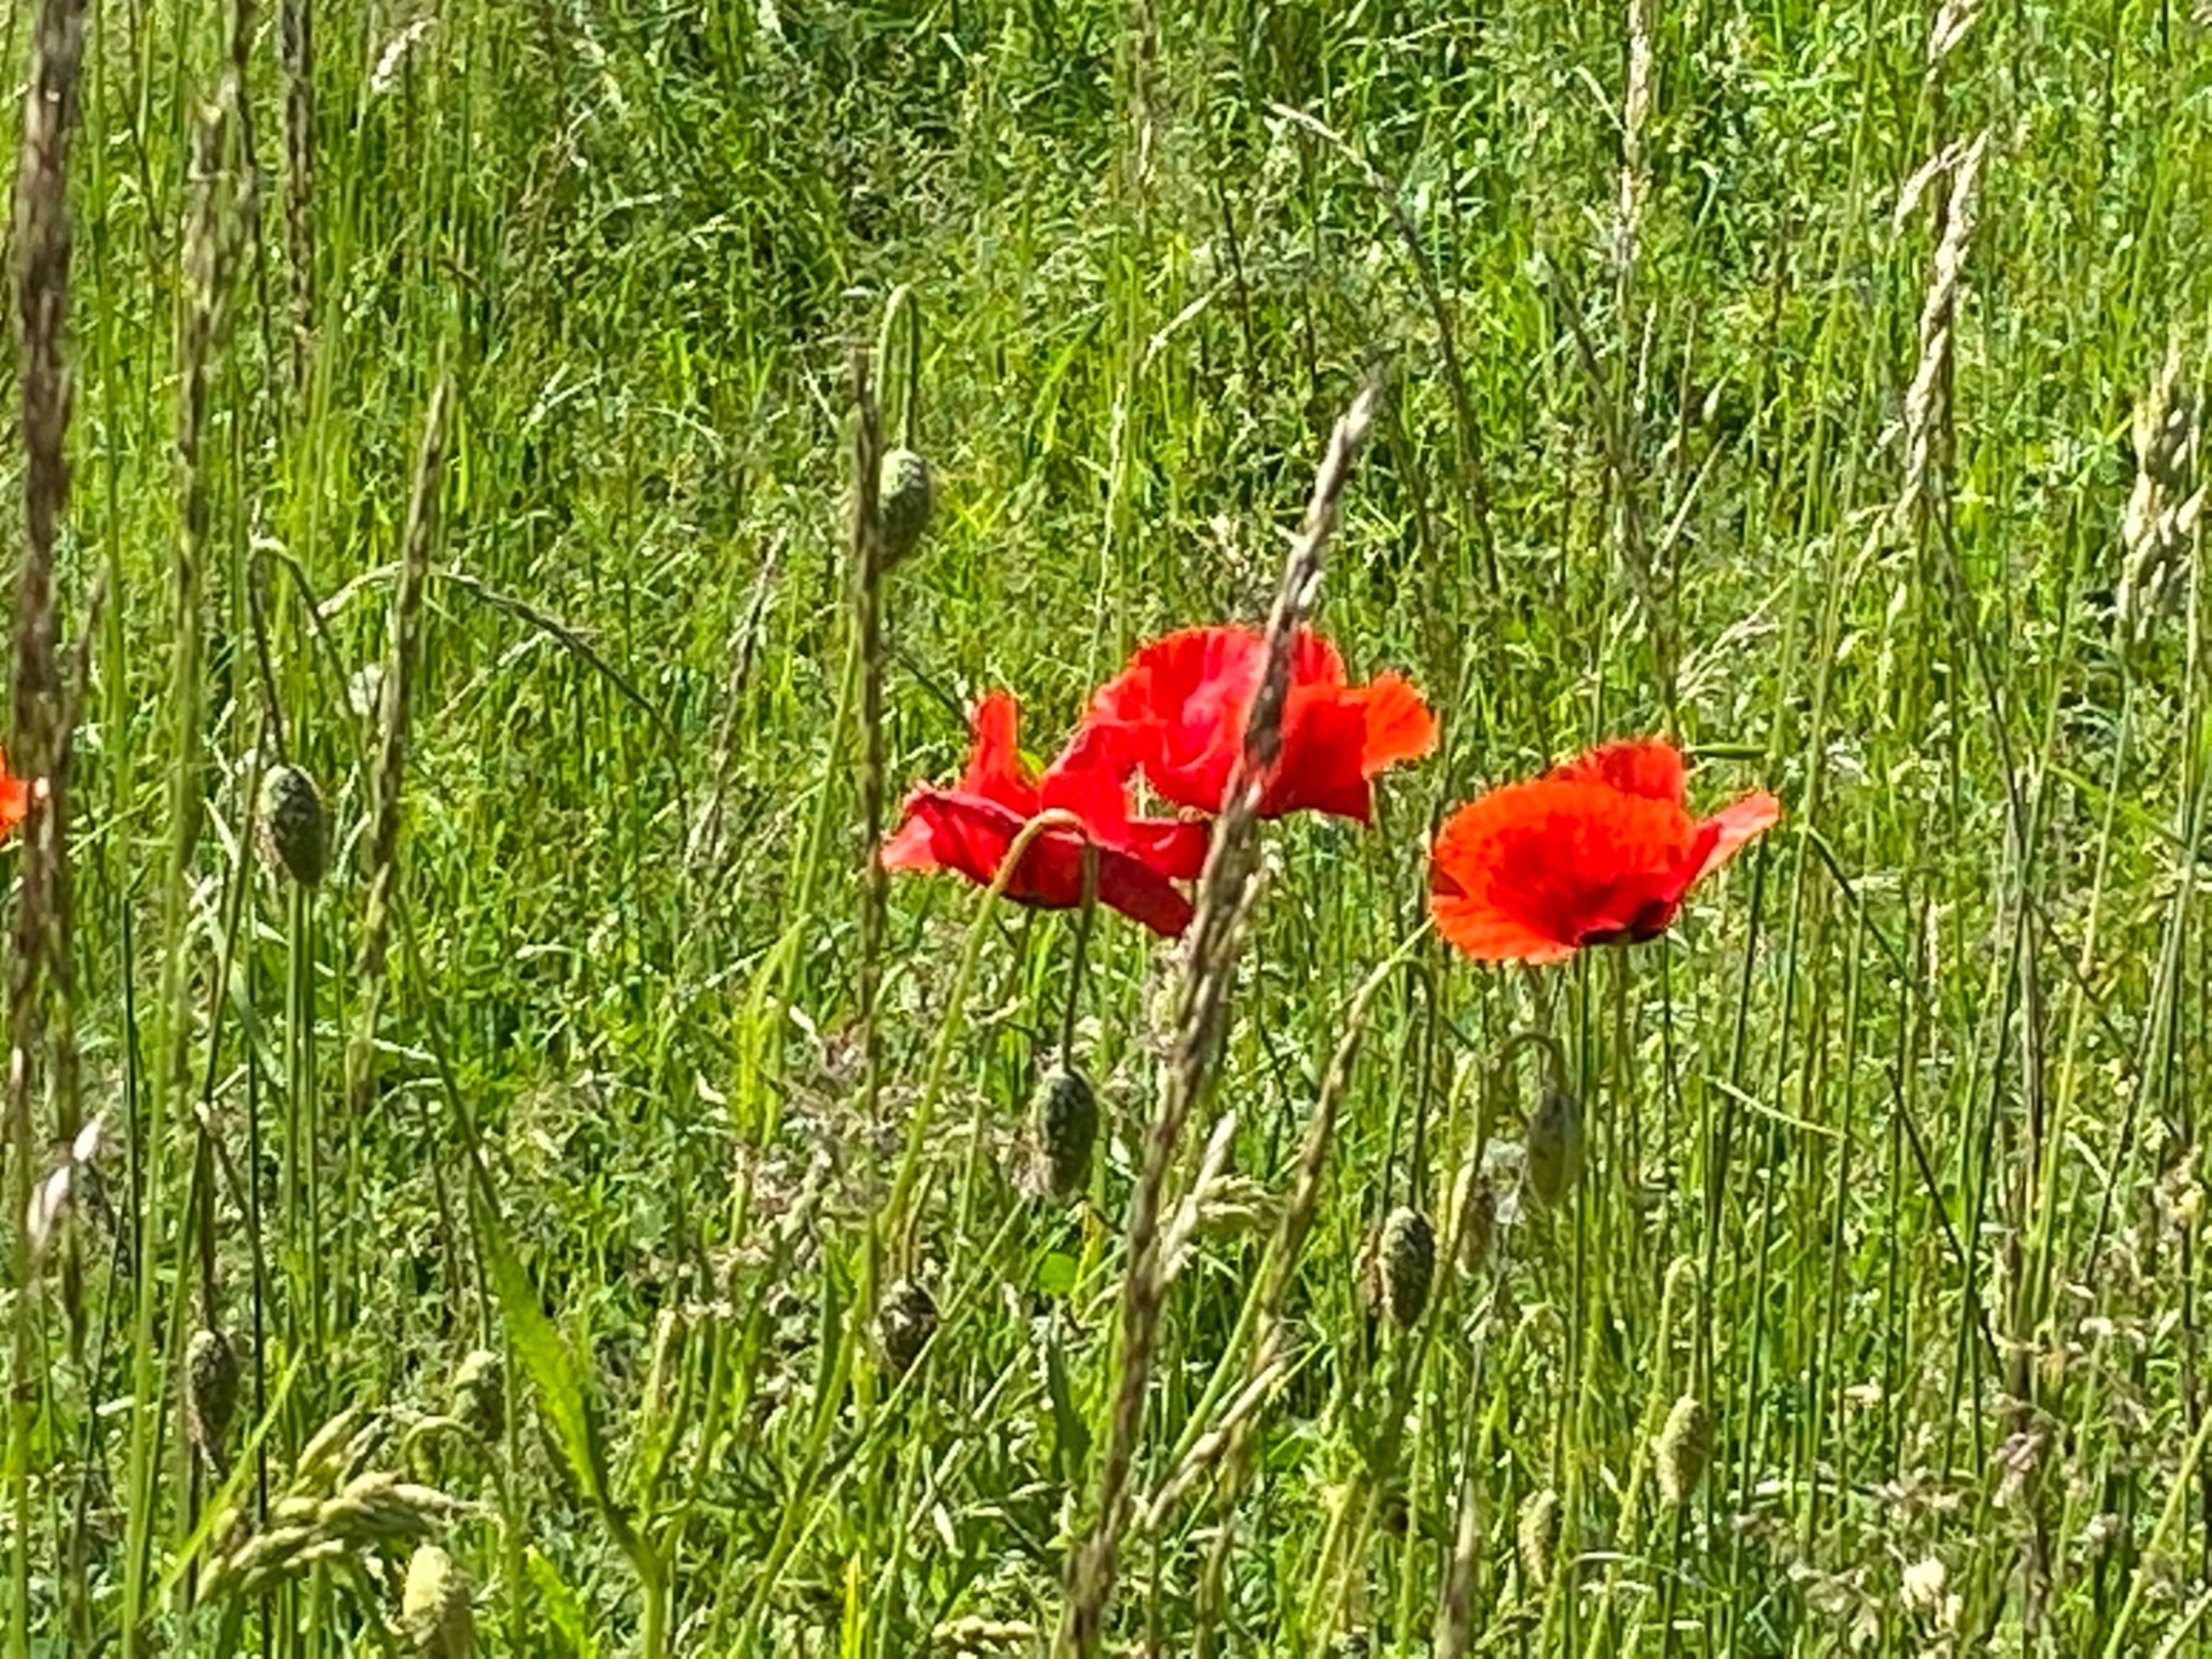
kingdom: Plantae
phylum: Tracheophyta
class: Magnoliopsida
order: Ranunculales
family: Papaveraceae
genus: Papaver
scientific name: Papaver dubium
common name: Gærde-valmue
